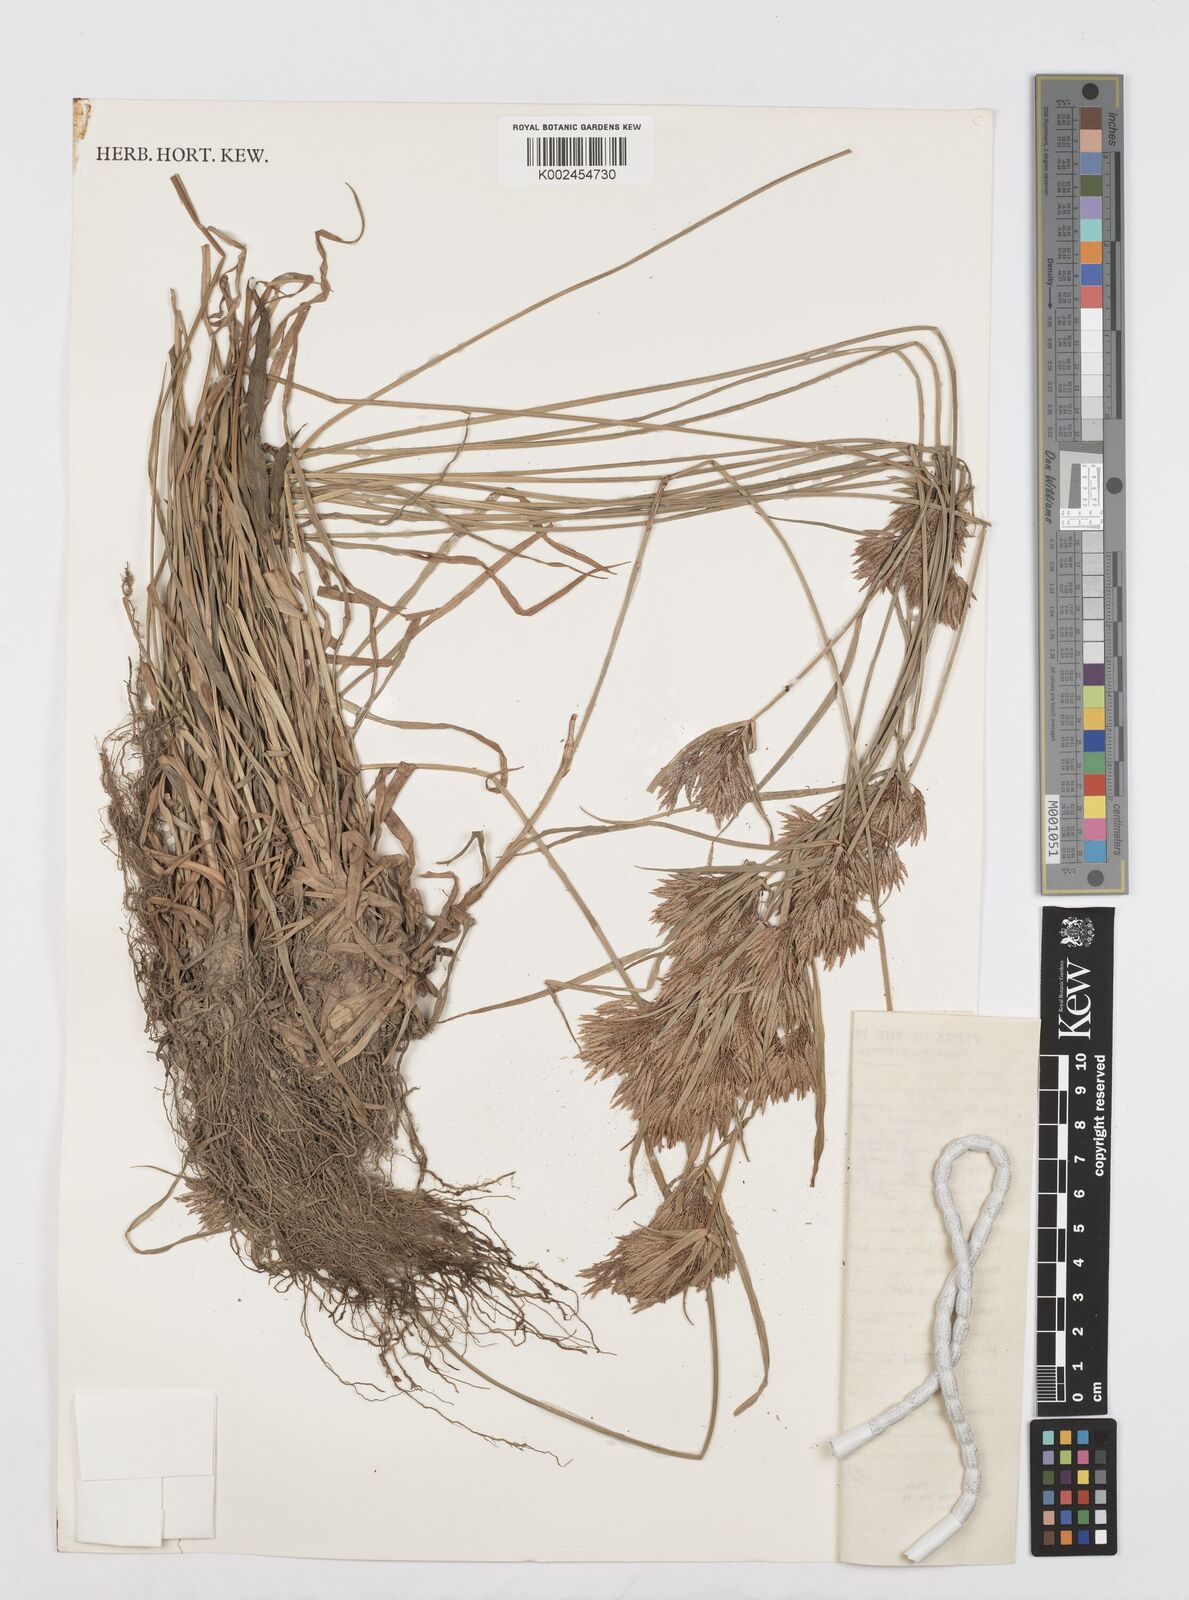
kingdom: Plantae
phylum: Tracheophyta
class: Liliopsida
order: Poales
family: Cyperaceae
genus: Cyperus
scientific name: Cyperus polystachyos
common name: Bunchy flat sedge
